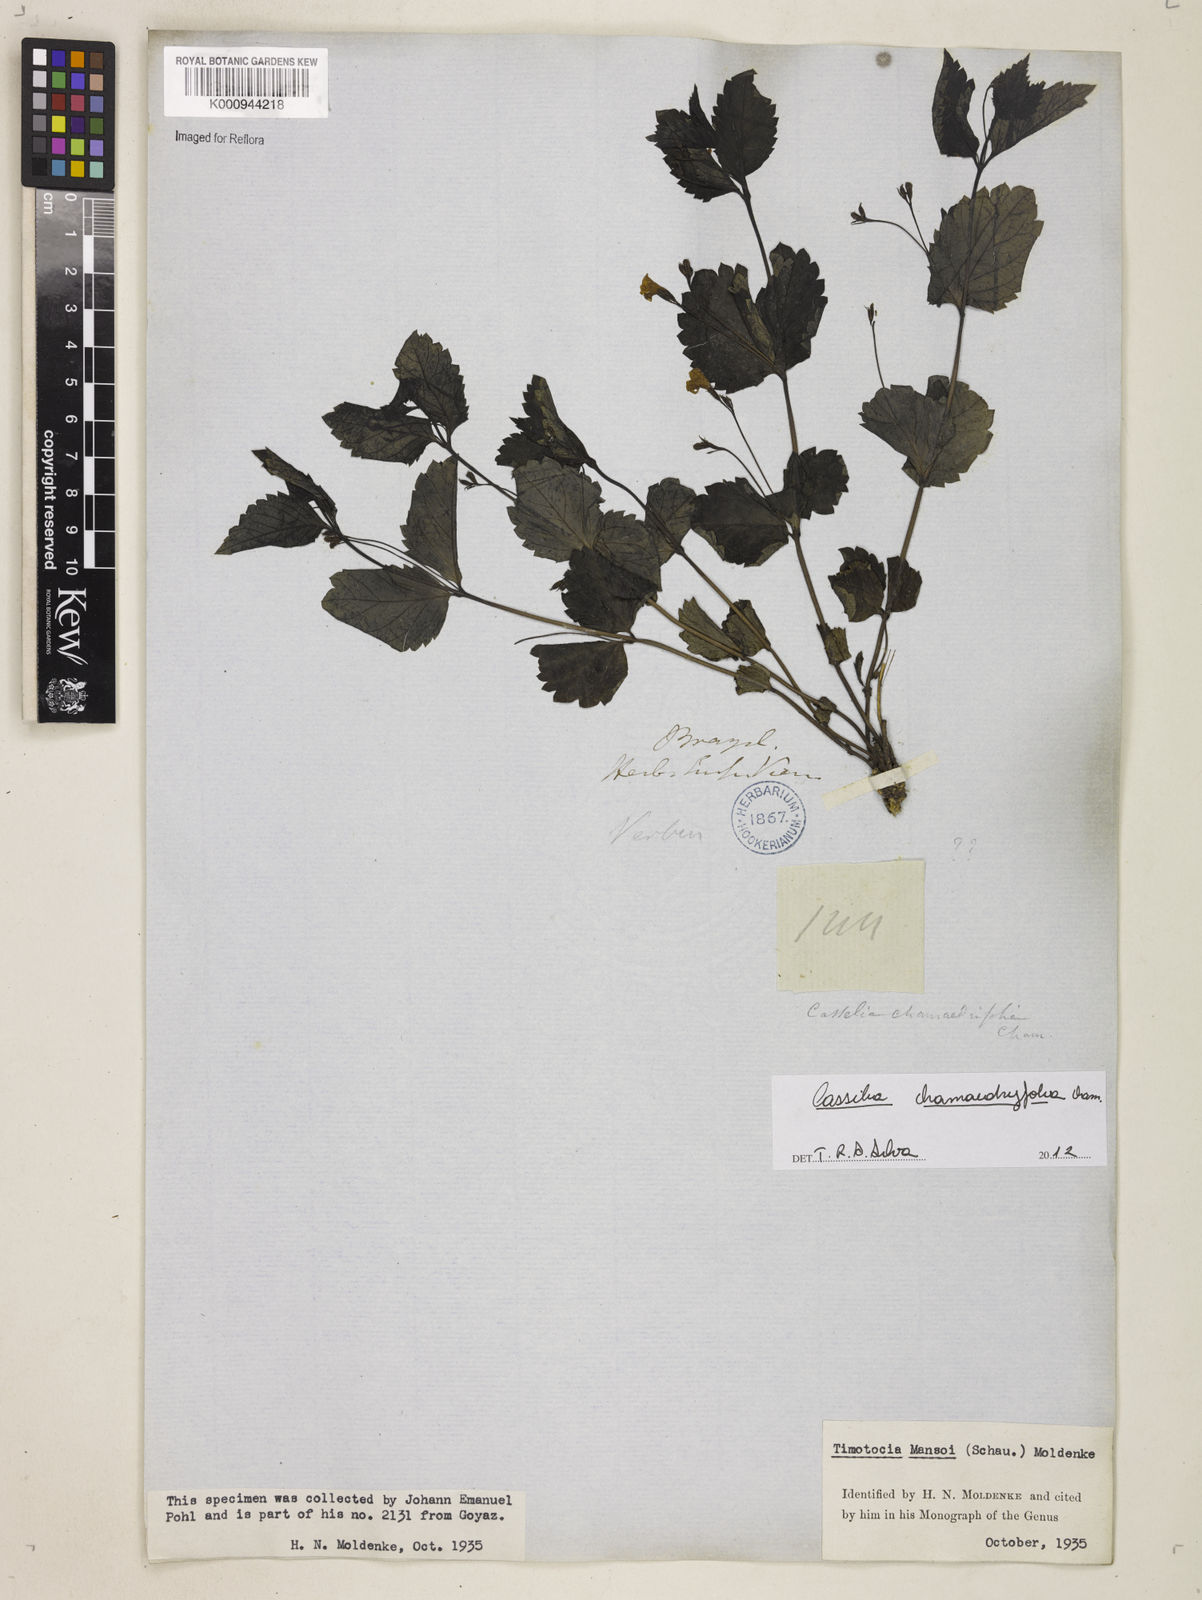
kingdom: Plantae
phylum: Tracheophyta
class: Magnoliopsida
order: Lamiales
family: Verbenaceae
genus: Casselia
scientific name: Casselia
